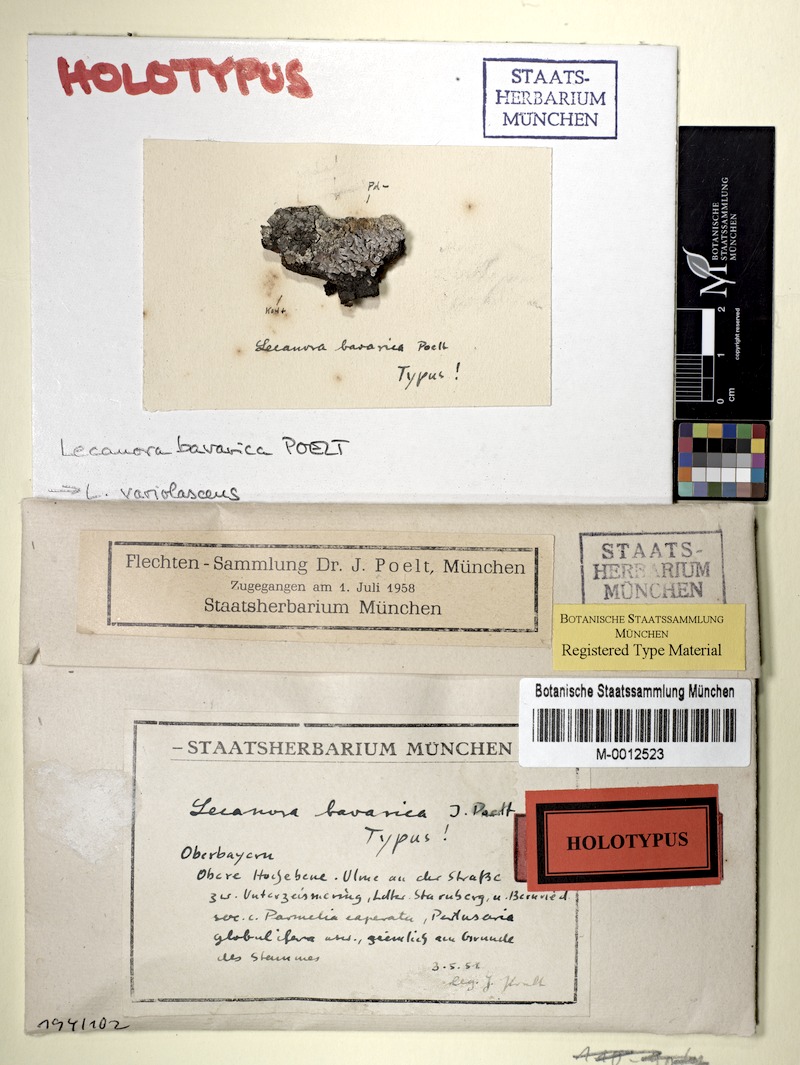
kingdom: Fungi
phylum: Ascomycota
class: Lecanoromycetes
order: Lecanorales
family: Lecanoraceae
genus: Lecanora
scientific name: Lecanora
